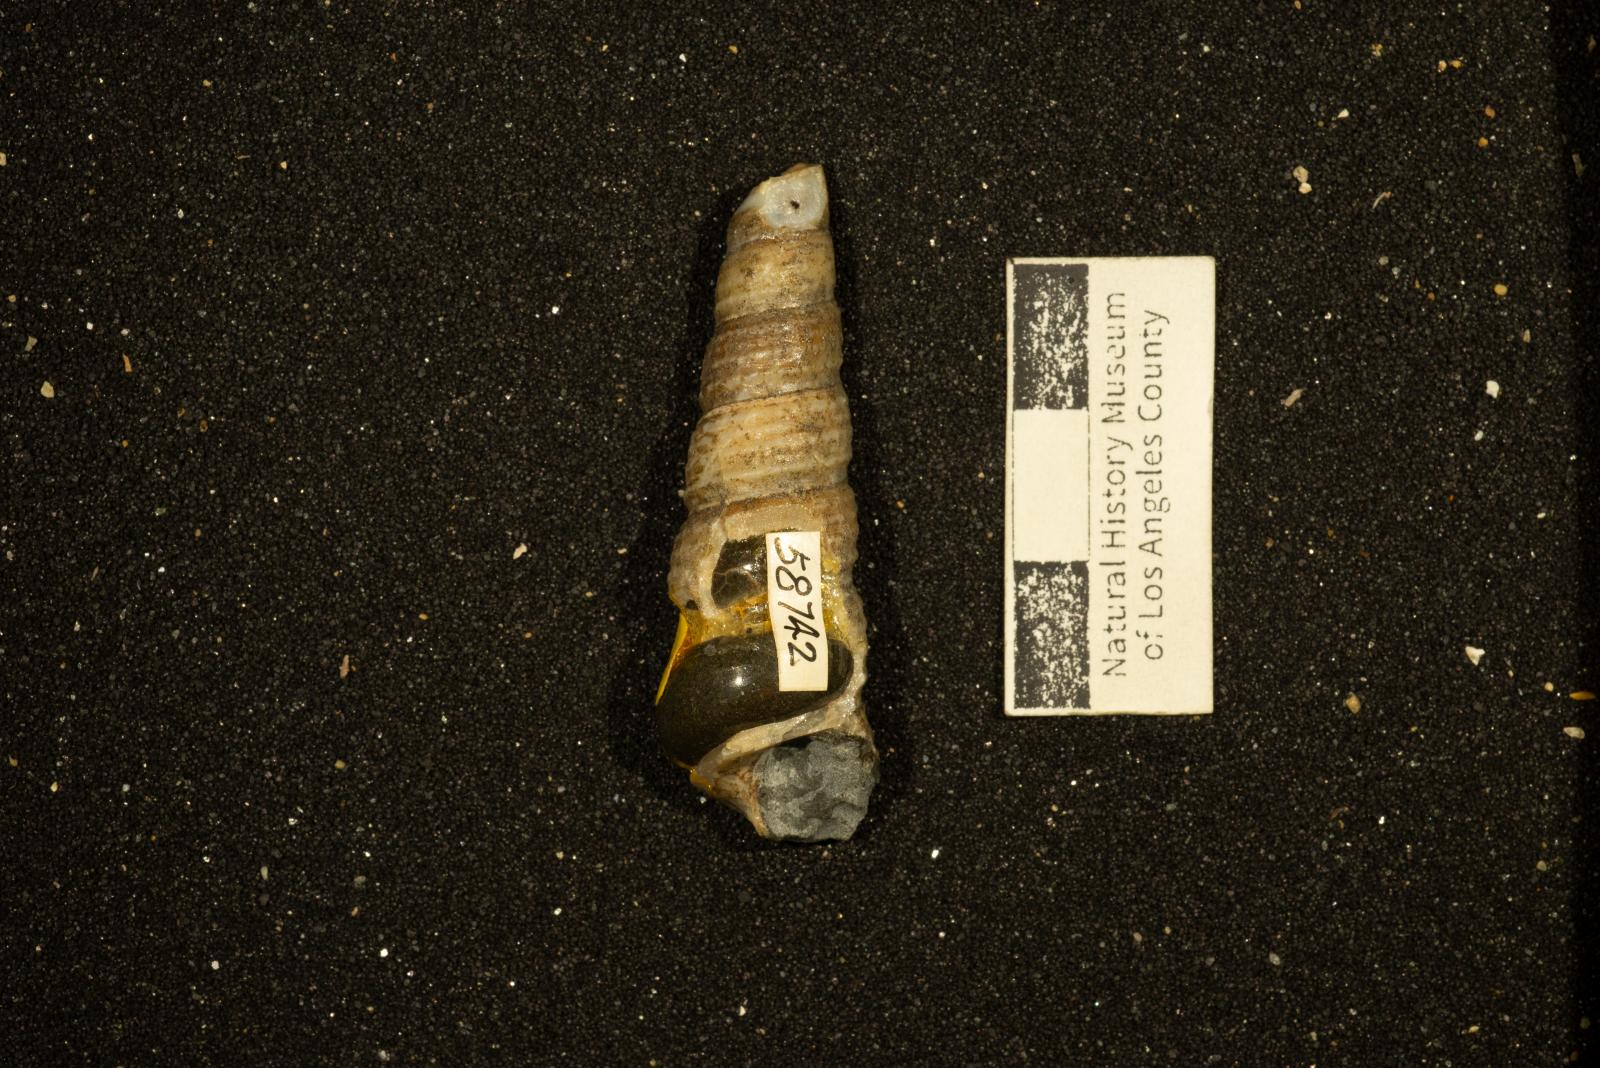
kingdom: Animalia
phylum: Mollusca
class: Gastropoda
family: Turritellidae
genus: Turritella
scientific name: Turritella chicoensis
